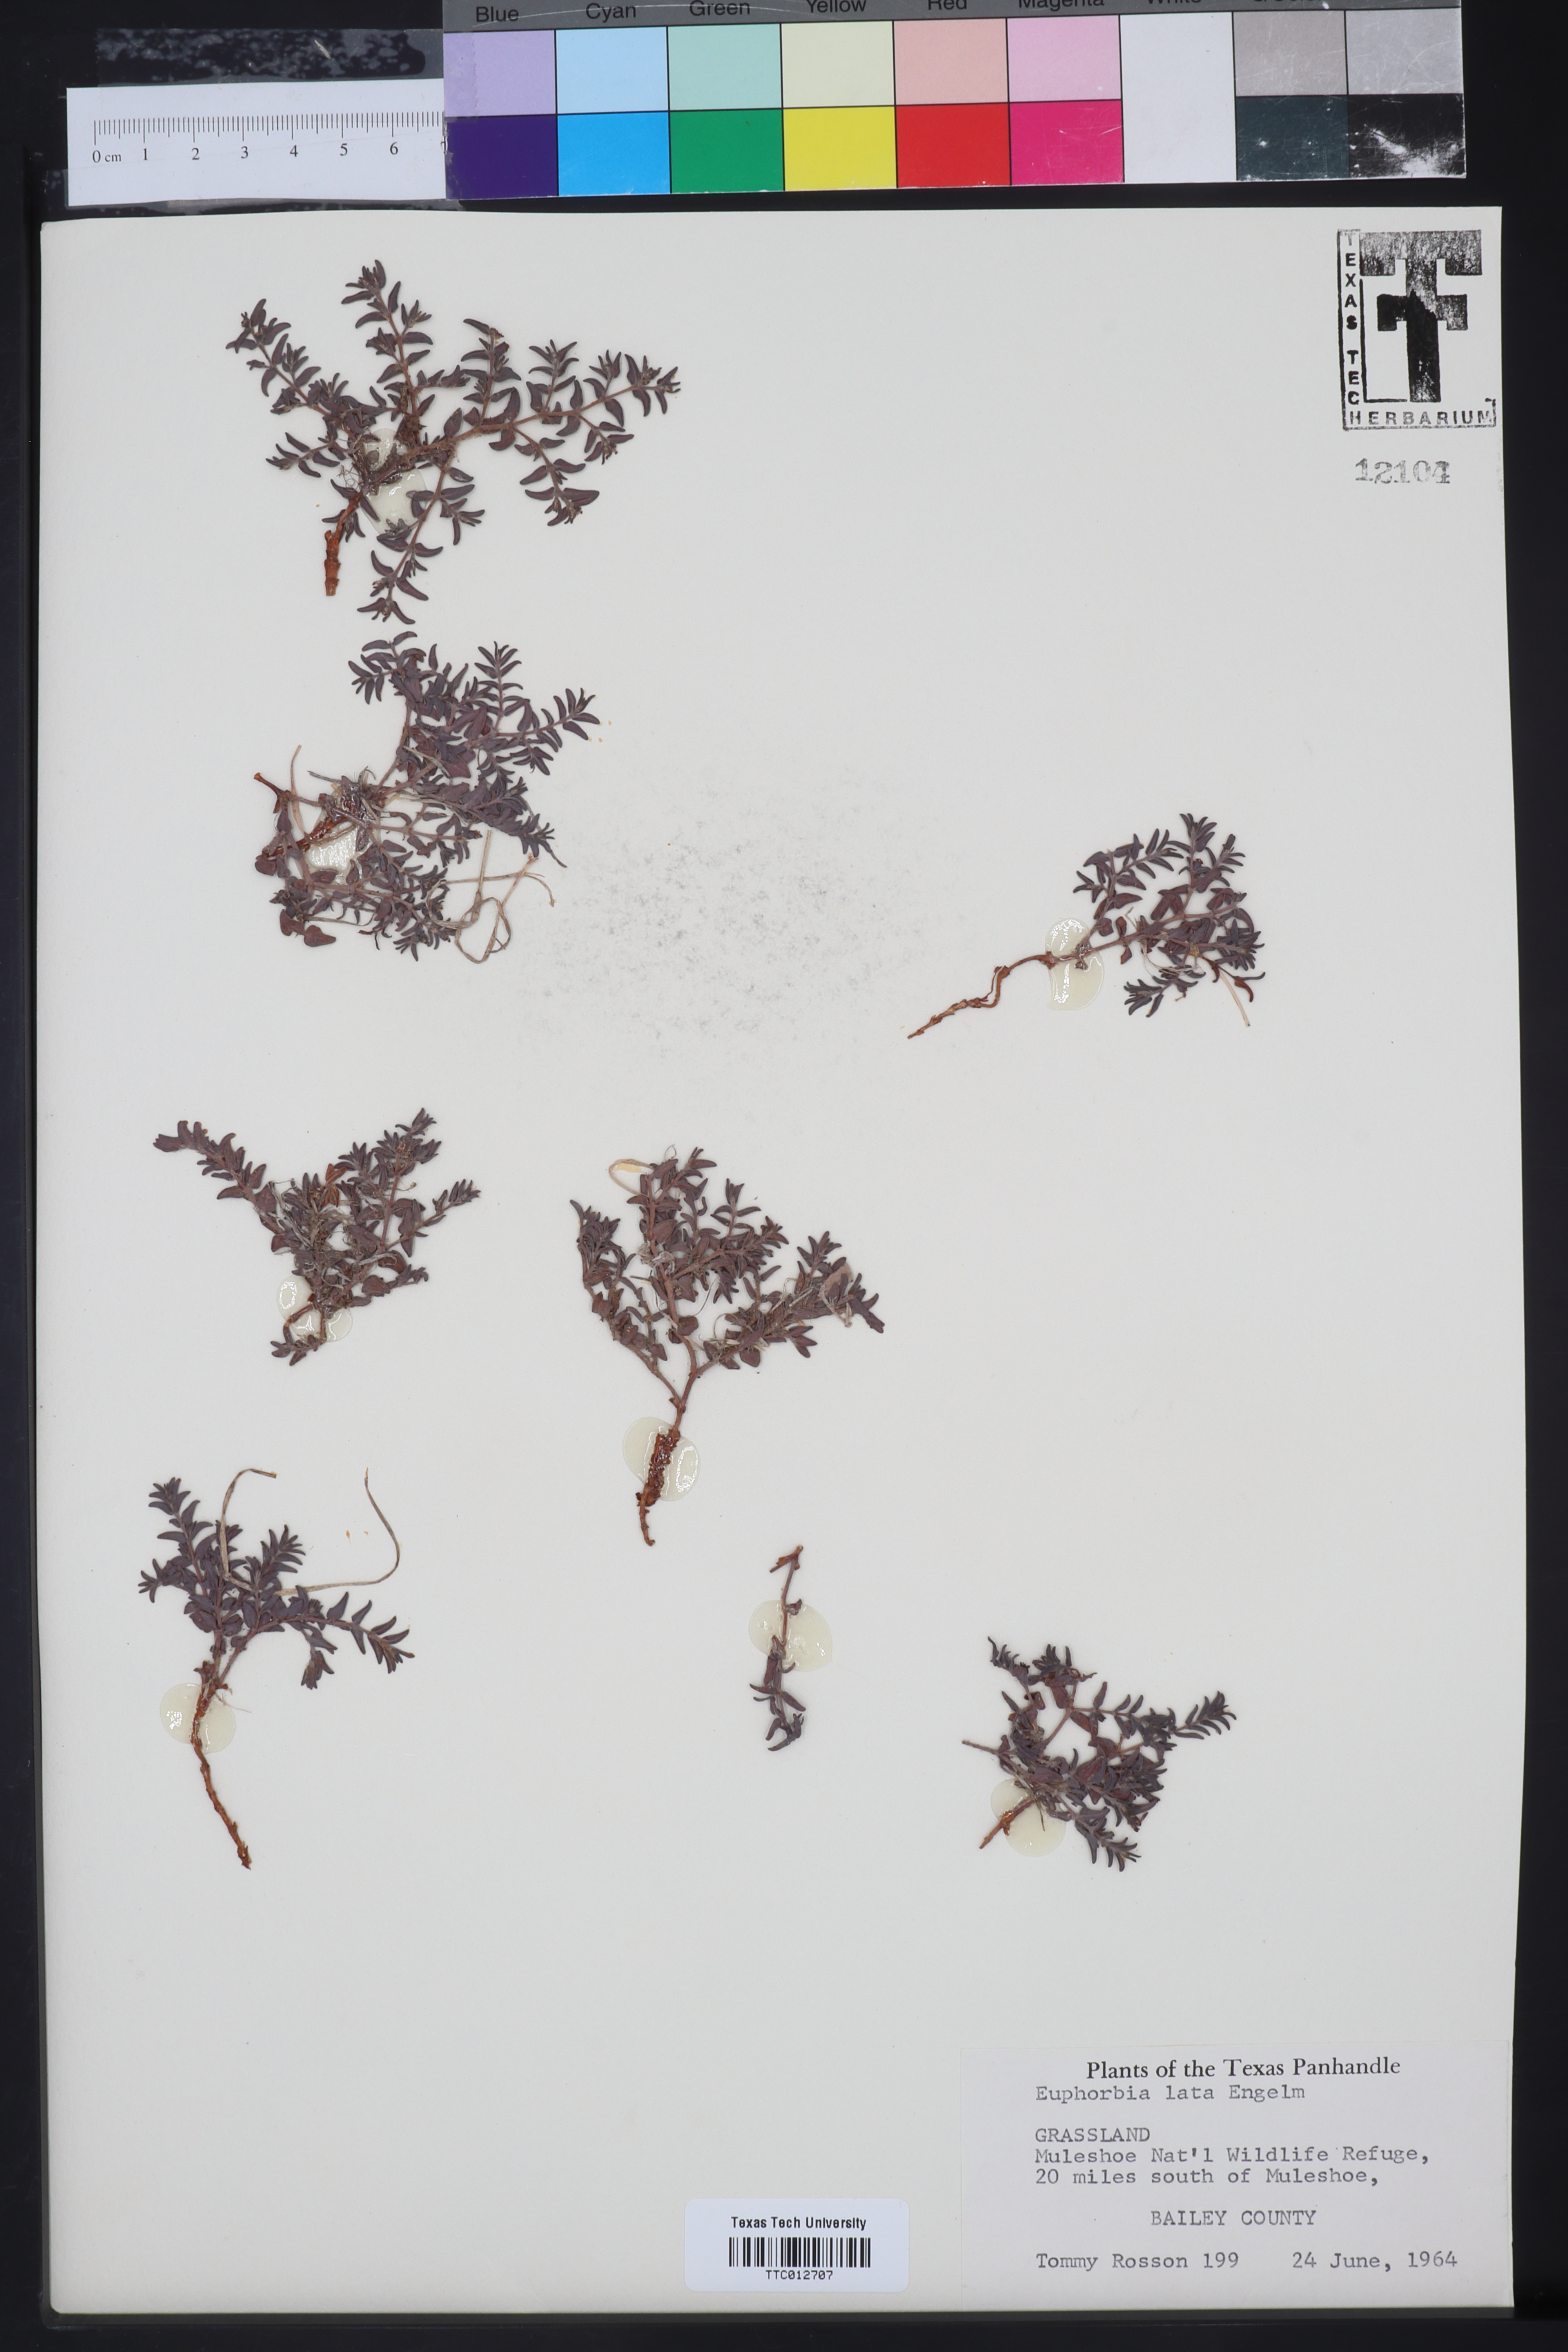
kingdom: Plantae
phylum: Tracheophyta
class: Magnoliopsida
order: Malpighiales
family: Euphorbiaceae
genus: Euphorbia
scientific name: Euphorbia lata
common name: Hoary euphorbia
